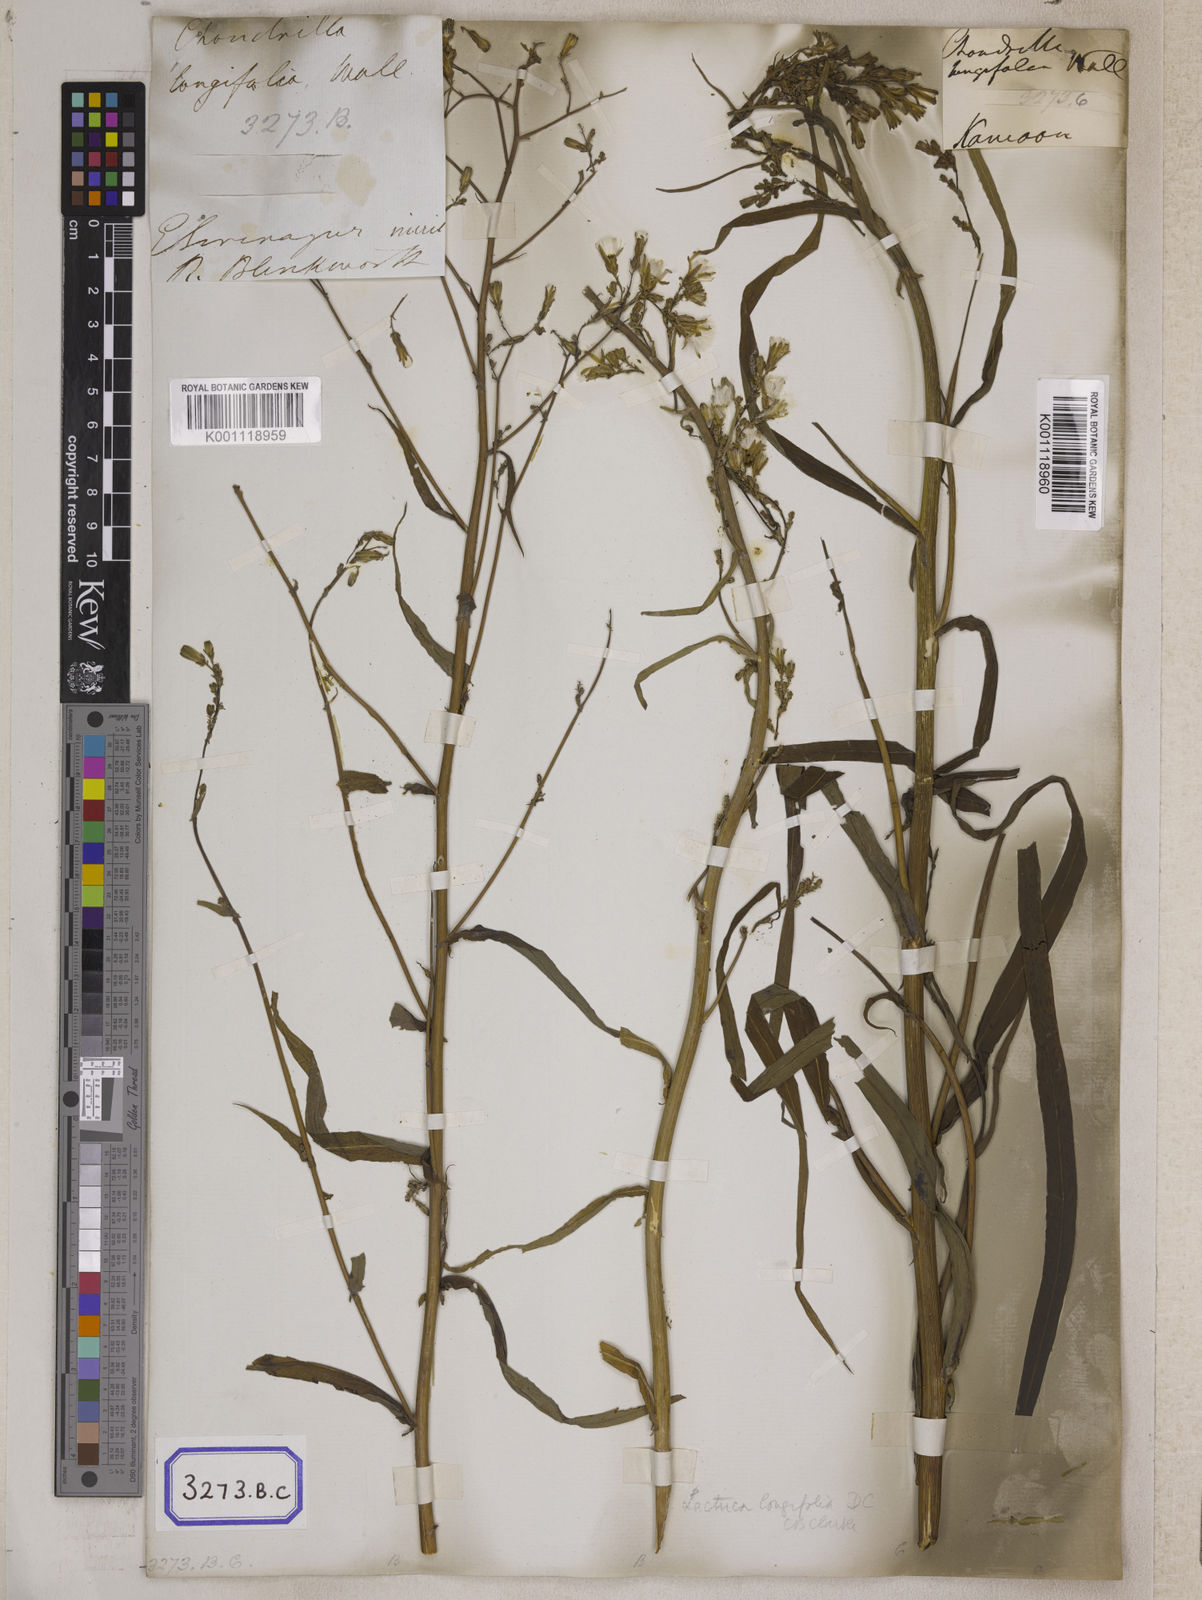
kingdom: Plantae
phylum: Tracheophyta
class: Magnoliopsida
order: Asterales
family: Asteraceae
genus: Lactuca
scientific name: Lactuca dolichophylla
